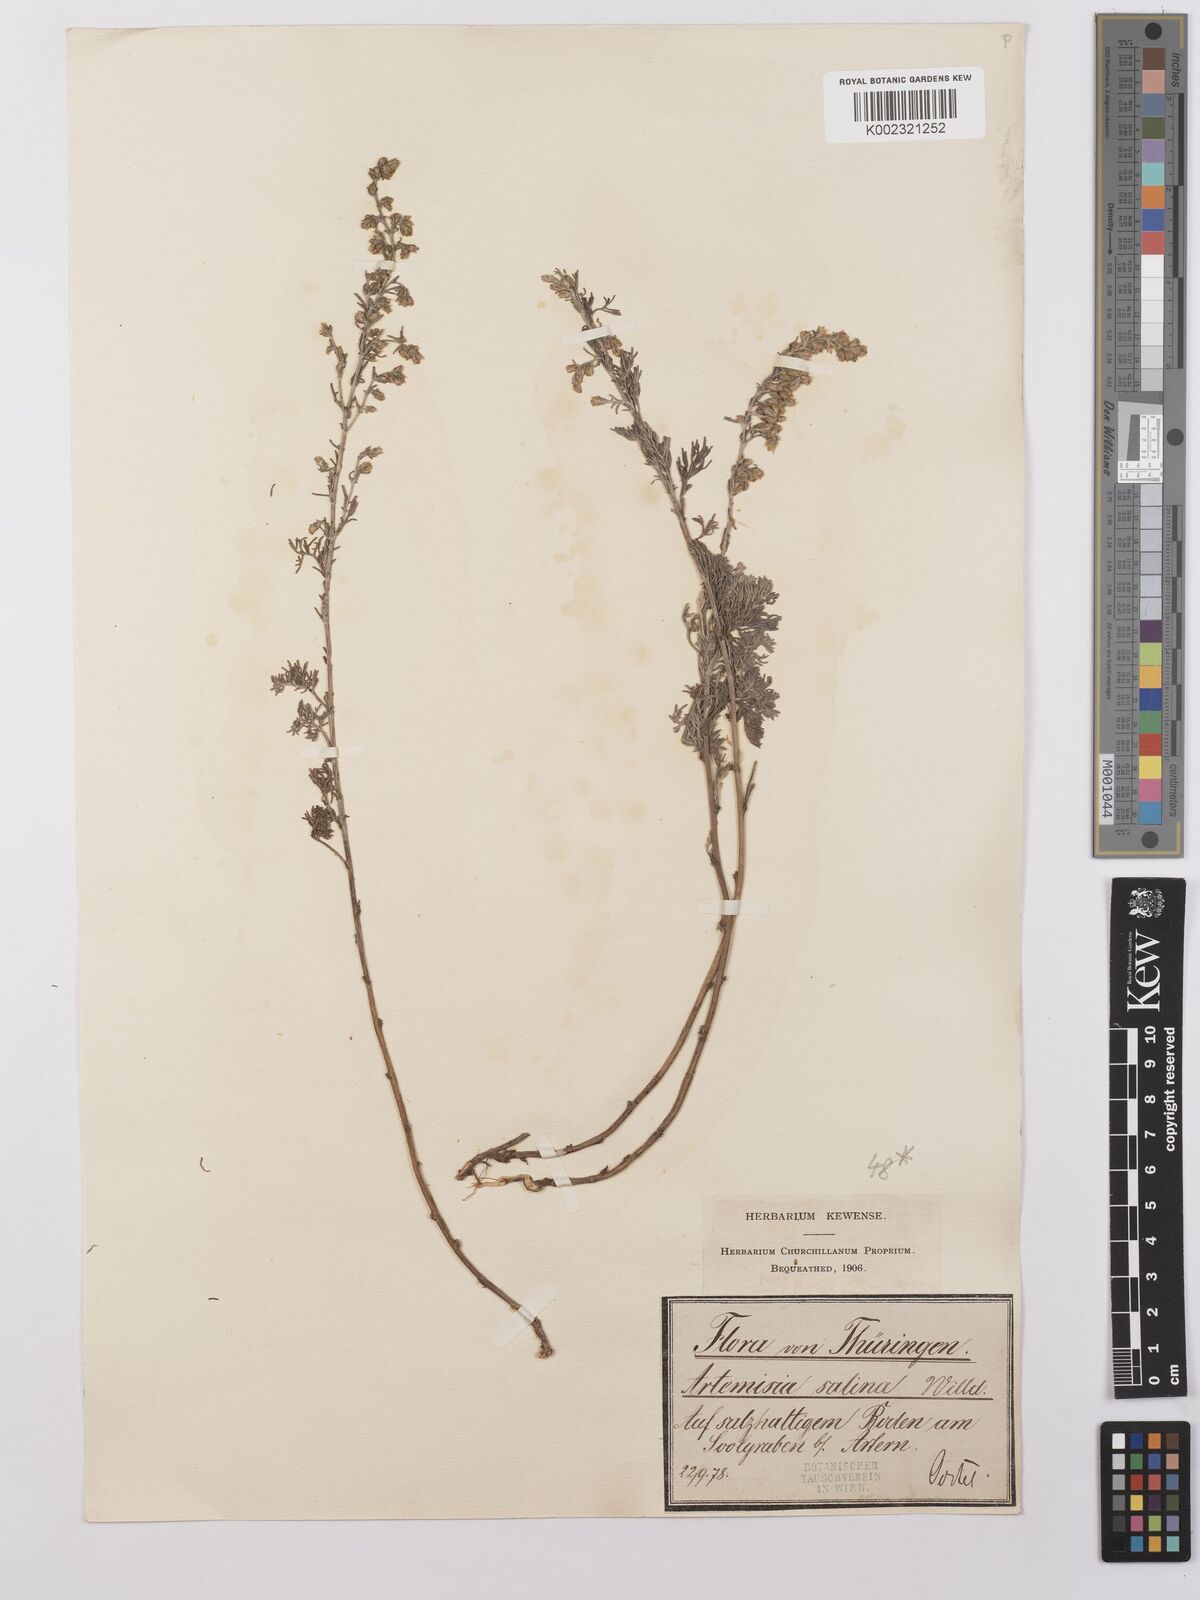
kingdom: Plantae
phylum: Tracheophyta
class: Magnoliopsida
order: Asterales
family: Asteraceae
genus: Artemisia
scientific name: Artemisia maritima
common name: Wormseed
